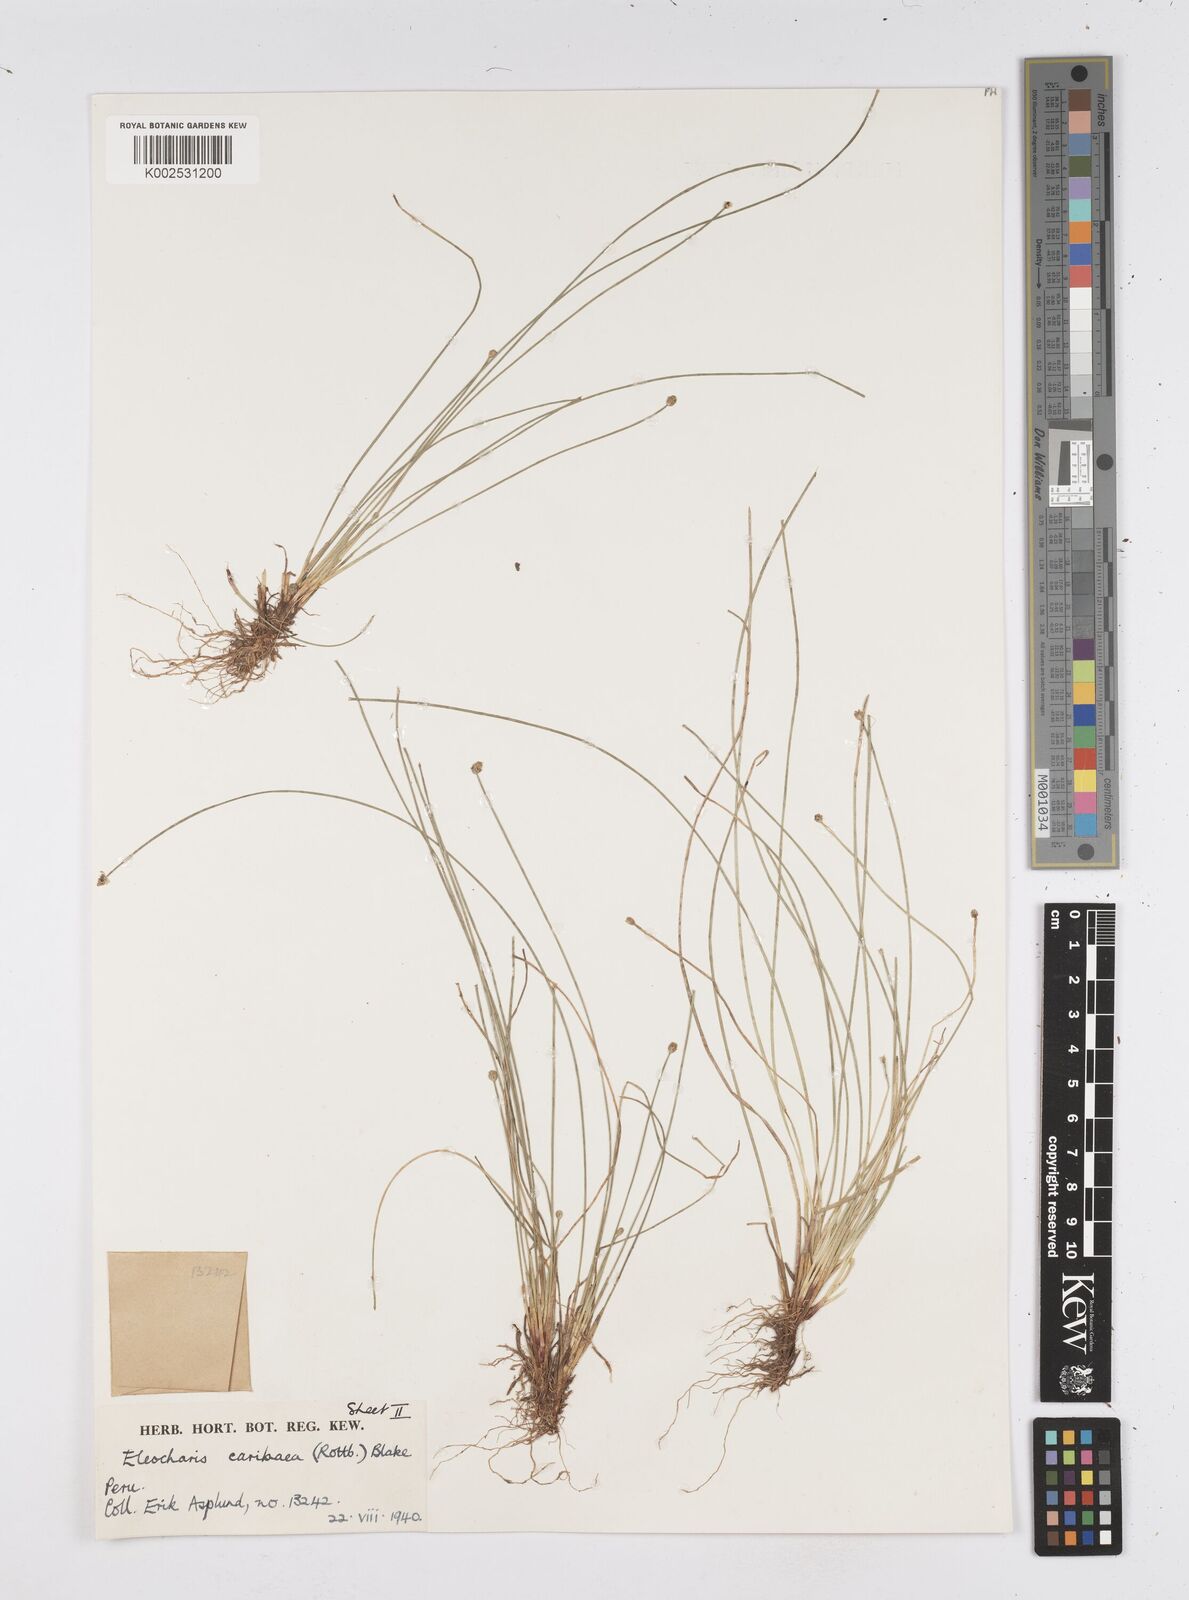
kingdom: Plantae
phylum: Tracheophyta
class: Liliopsida
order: Poales
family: Cyperaceae
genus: Eleocharis
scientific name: Eleocharis geniculata
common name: Canada spikesedge
